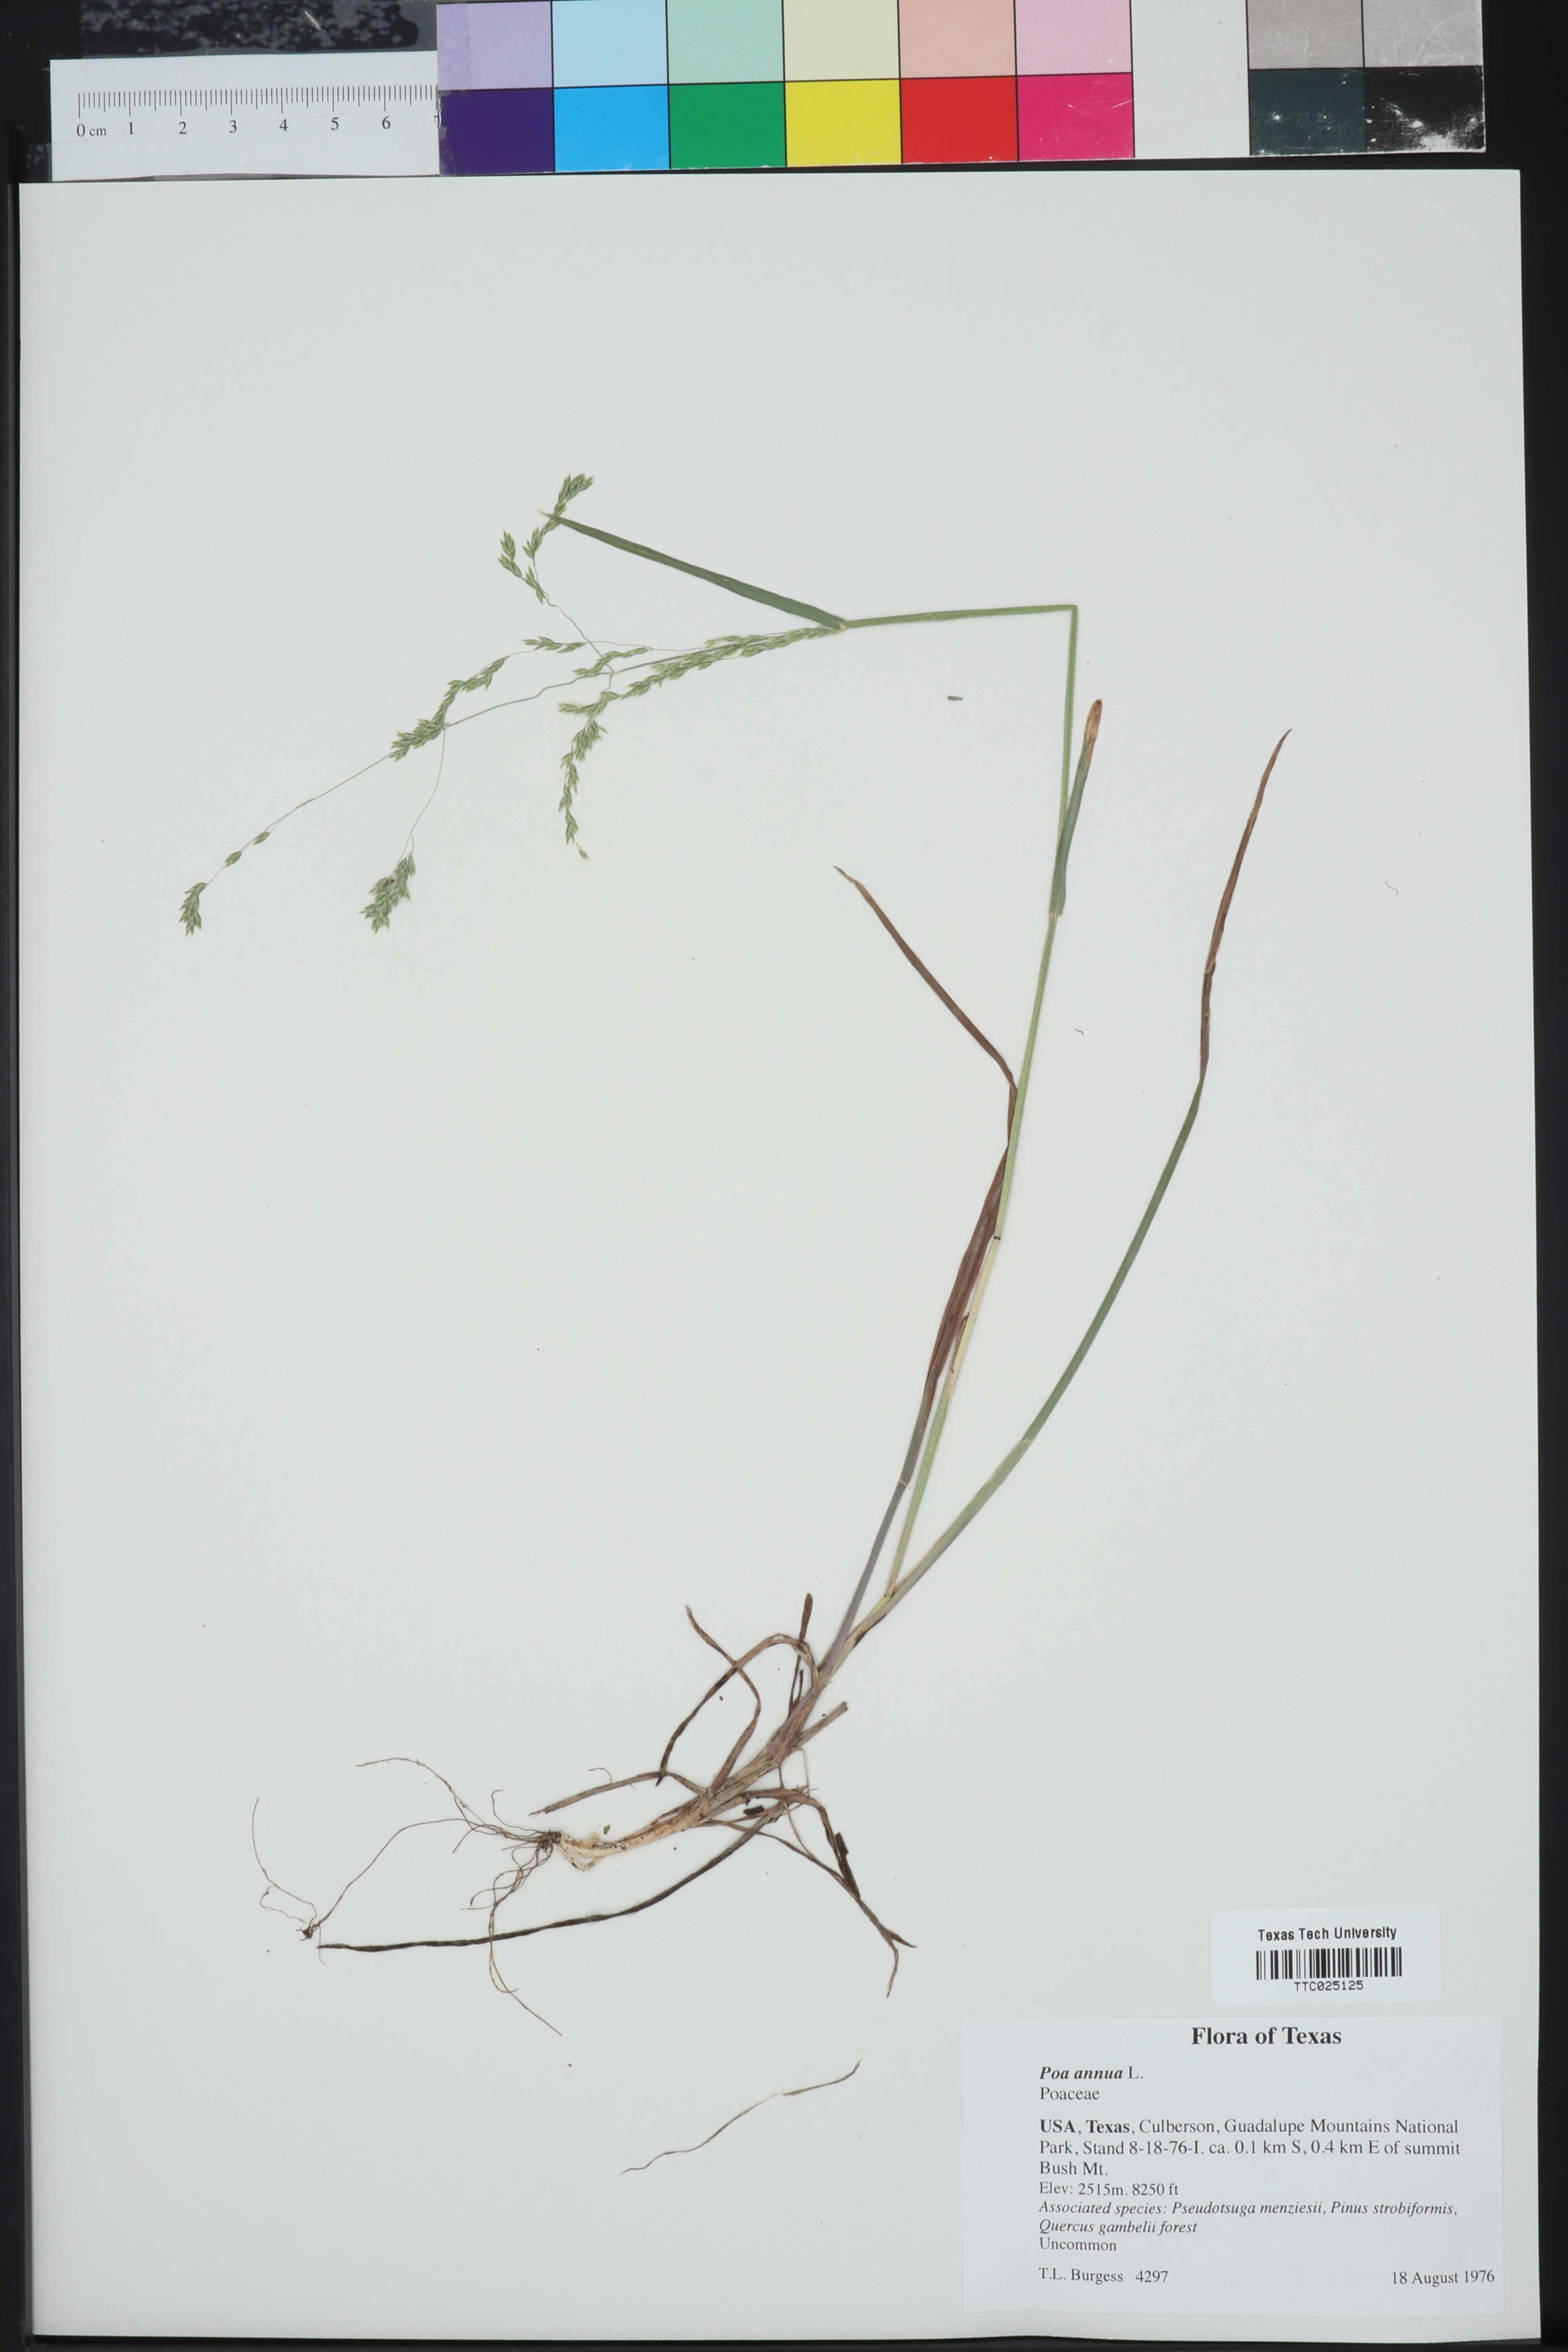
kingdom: Plantae
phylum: Tracheophyta
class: Liliopsida
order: Poales
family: Poaceae
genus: Poa
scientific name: Poa annua
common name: Annual bluegrass
